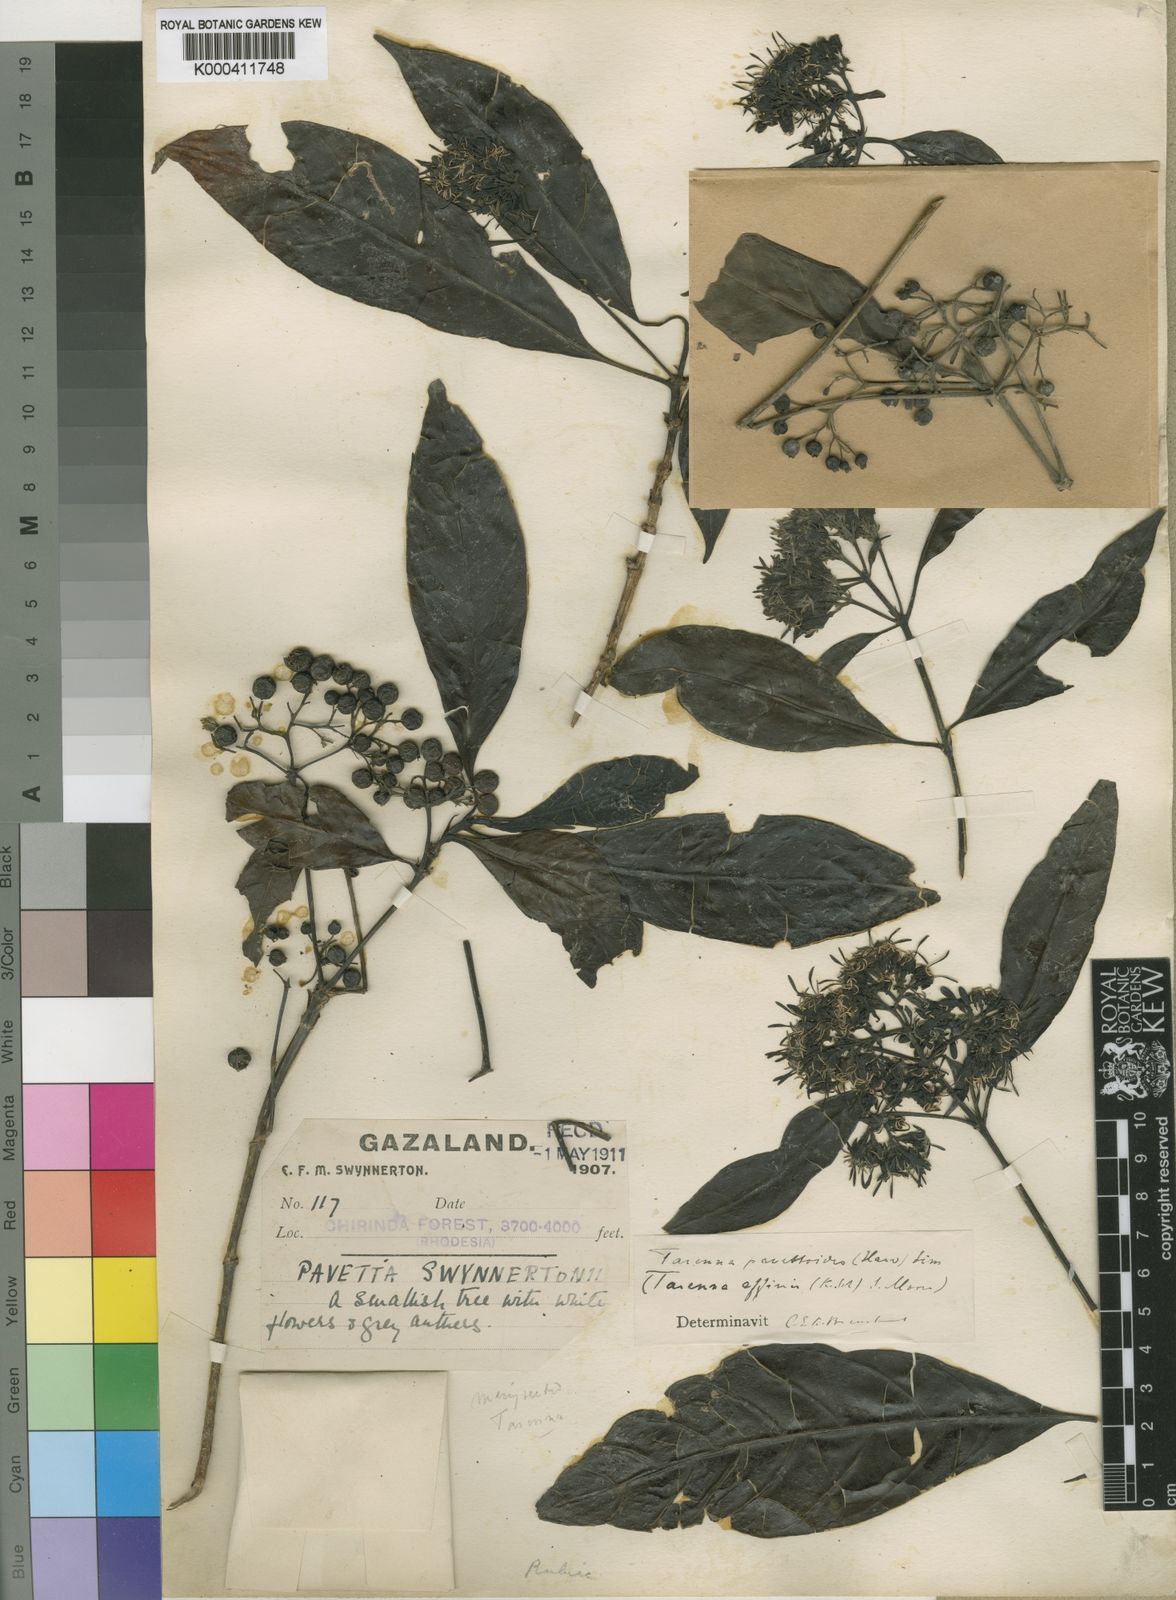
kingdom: Plantae
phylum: Tracheophyta
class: Magnoliopsida
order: Gentianales
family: Rubiaceae
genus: Tarenna
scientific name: Tarenna pavettoides
